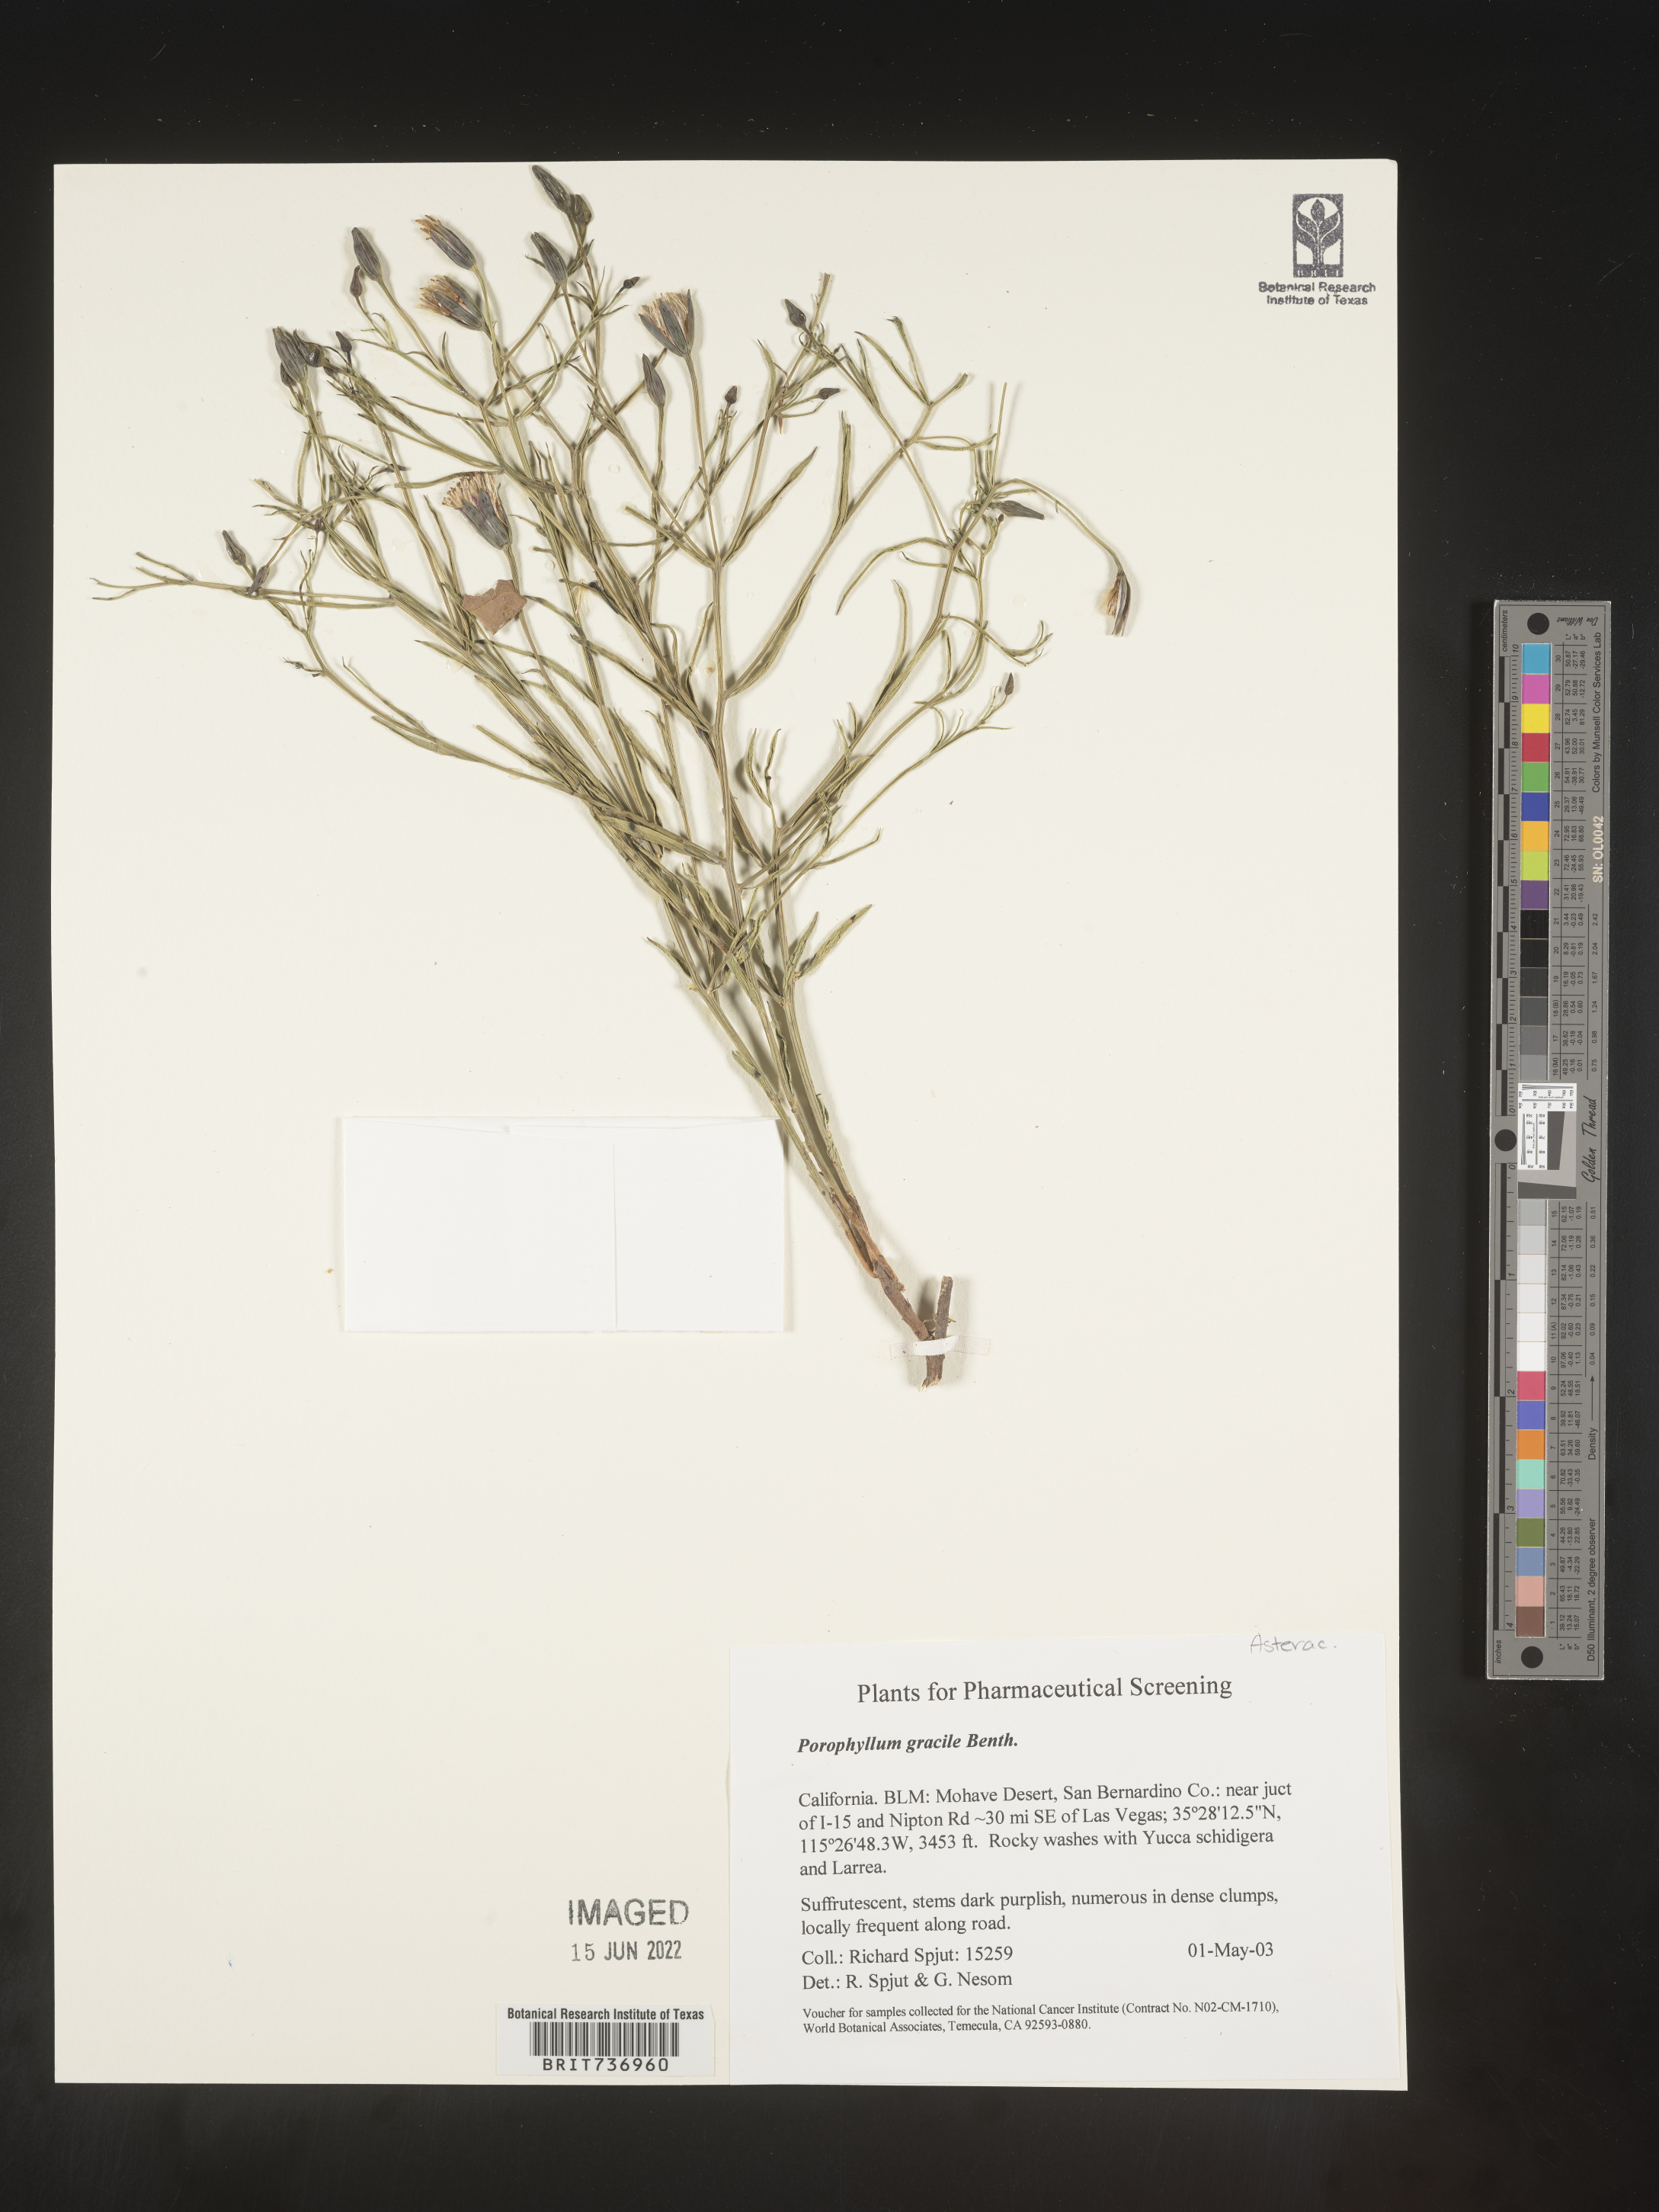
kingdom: Plantae
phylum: Tracheophyta
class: Magnoliopsida
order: Asterales
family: Asteraceae
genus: Porophyllum
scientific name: Porophyllum
